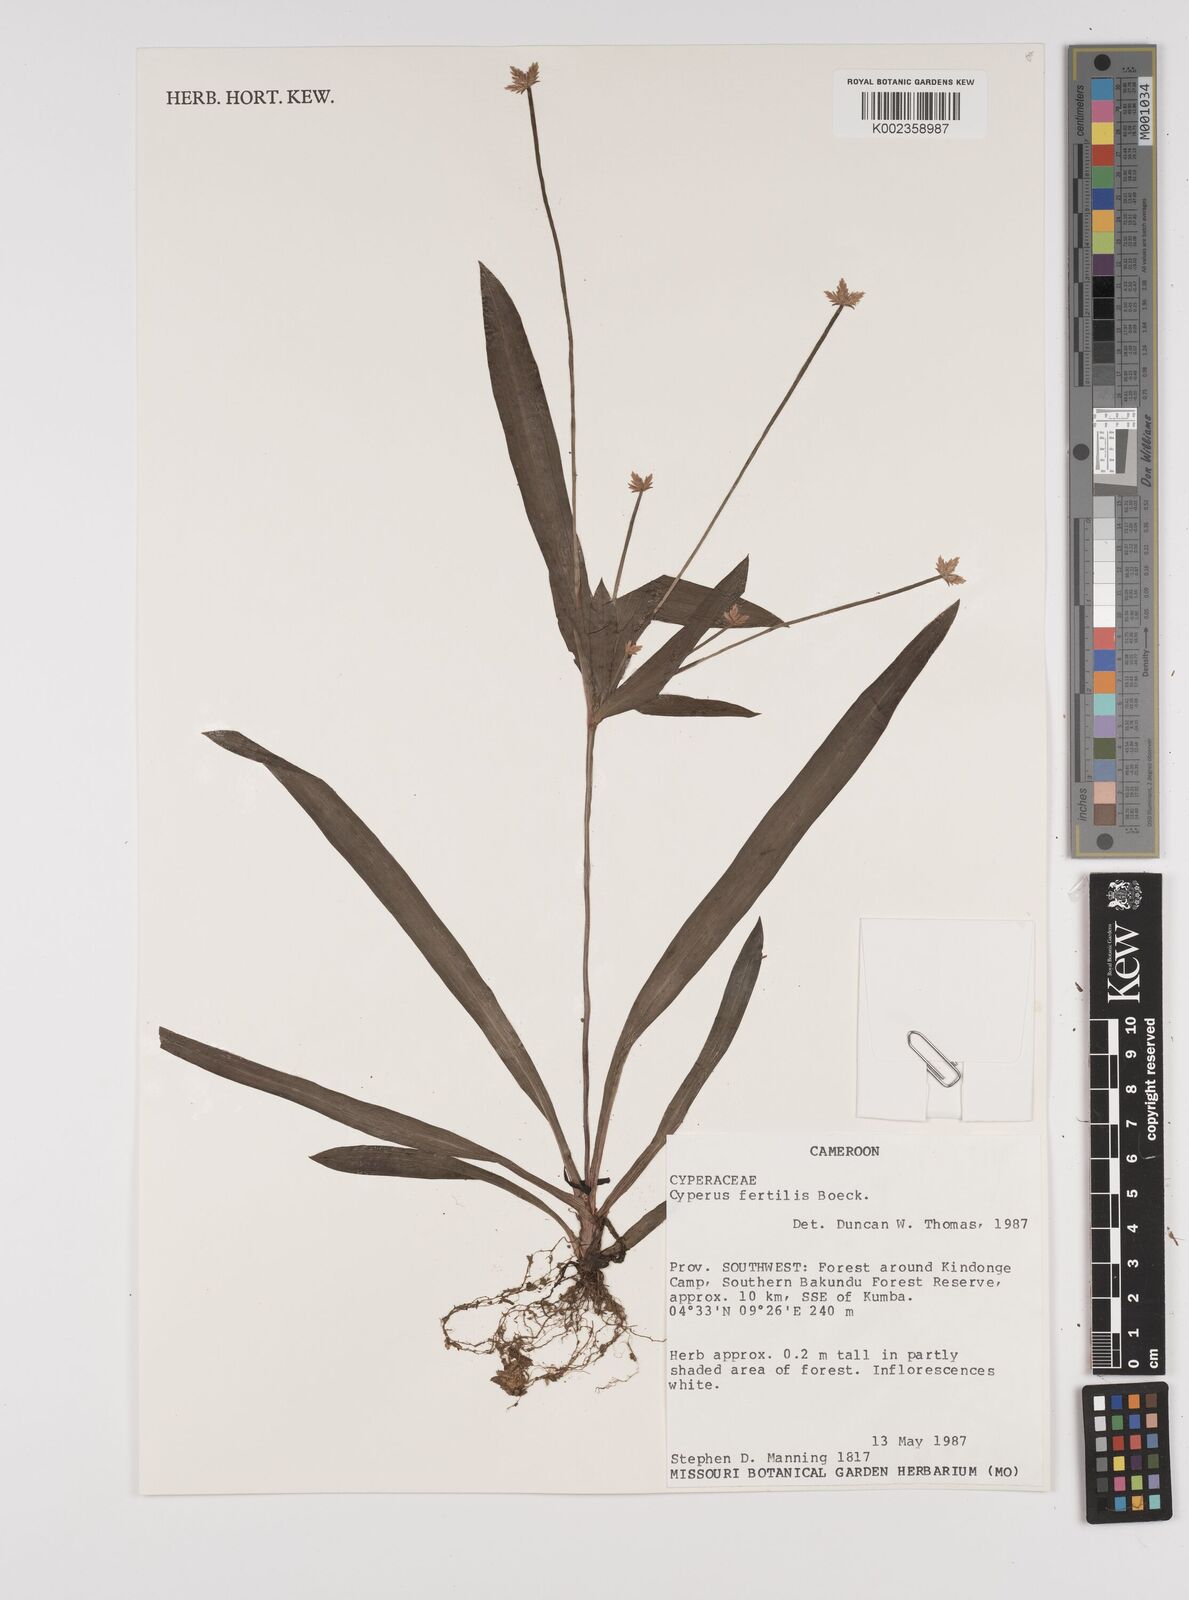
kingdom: Plantae
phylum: Tracheophyta
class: Liliopsida
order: Poales
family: Cyperaceae
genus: Cyperus
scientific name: Cyperus fertilis
